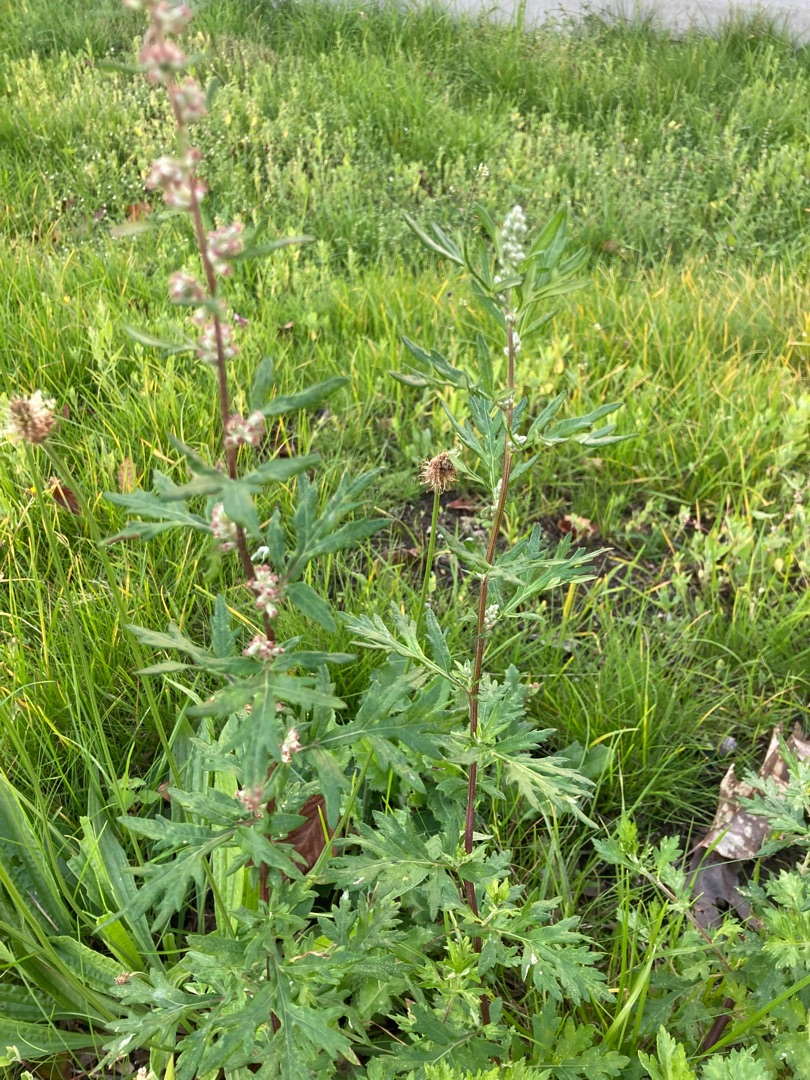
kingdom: Plantae
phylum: Tracheophyta
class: Magnoliopsida
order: Asterales
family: Asteraceae
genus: Artemisia
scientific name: Artemisia vulgaris
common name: Grå-bynke
